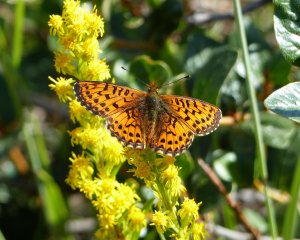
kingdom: Animalia
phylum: Arthropoda
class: Insecta
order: Lepidoptera
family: Nymphalidae
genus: Boloria
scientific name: Boloria chariclea
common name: Arctic Fritillary
